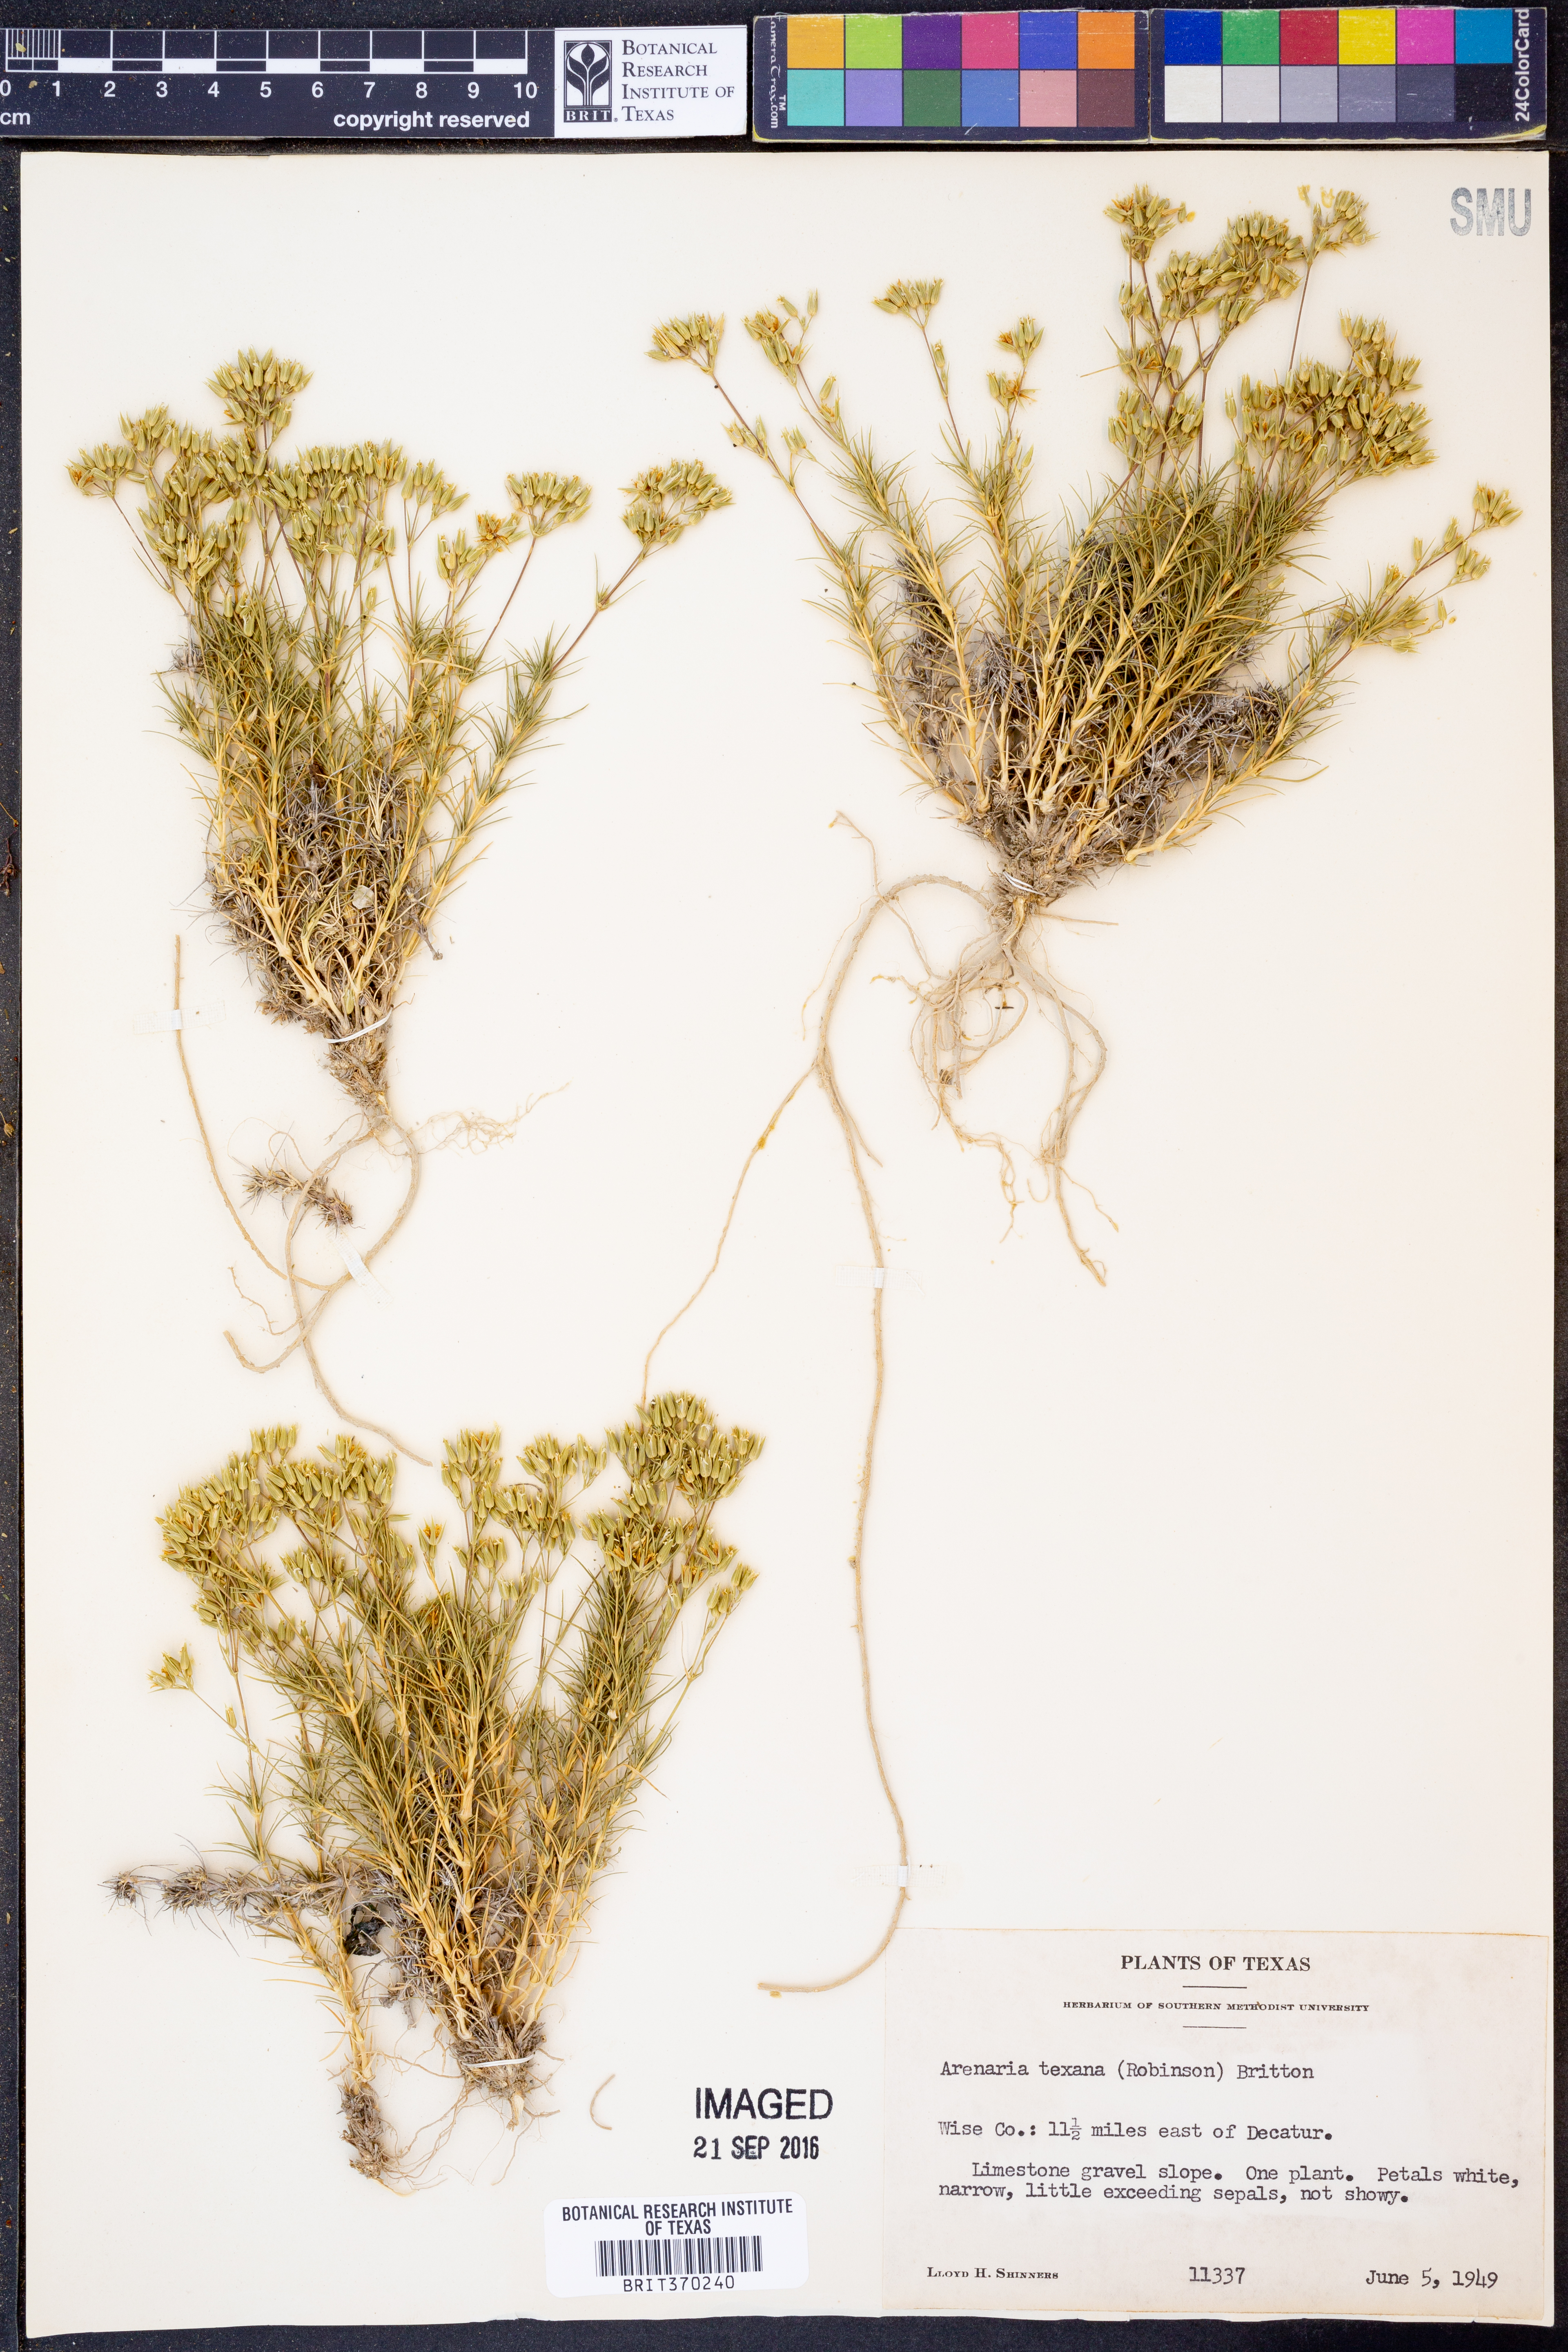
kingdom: Plantae
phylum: Tracheophyta
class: Magnoliopsida
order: Caryophyllales
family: Caryophyllaceae
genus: Sabulina
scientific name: Sabulina texana
